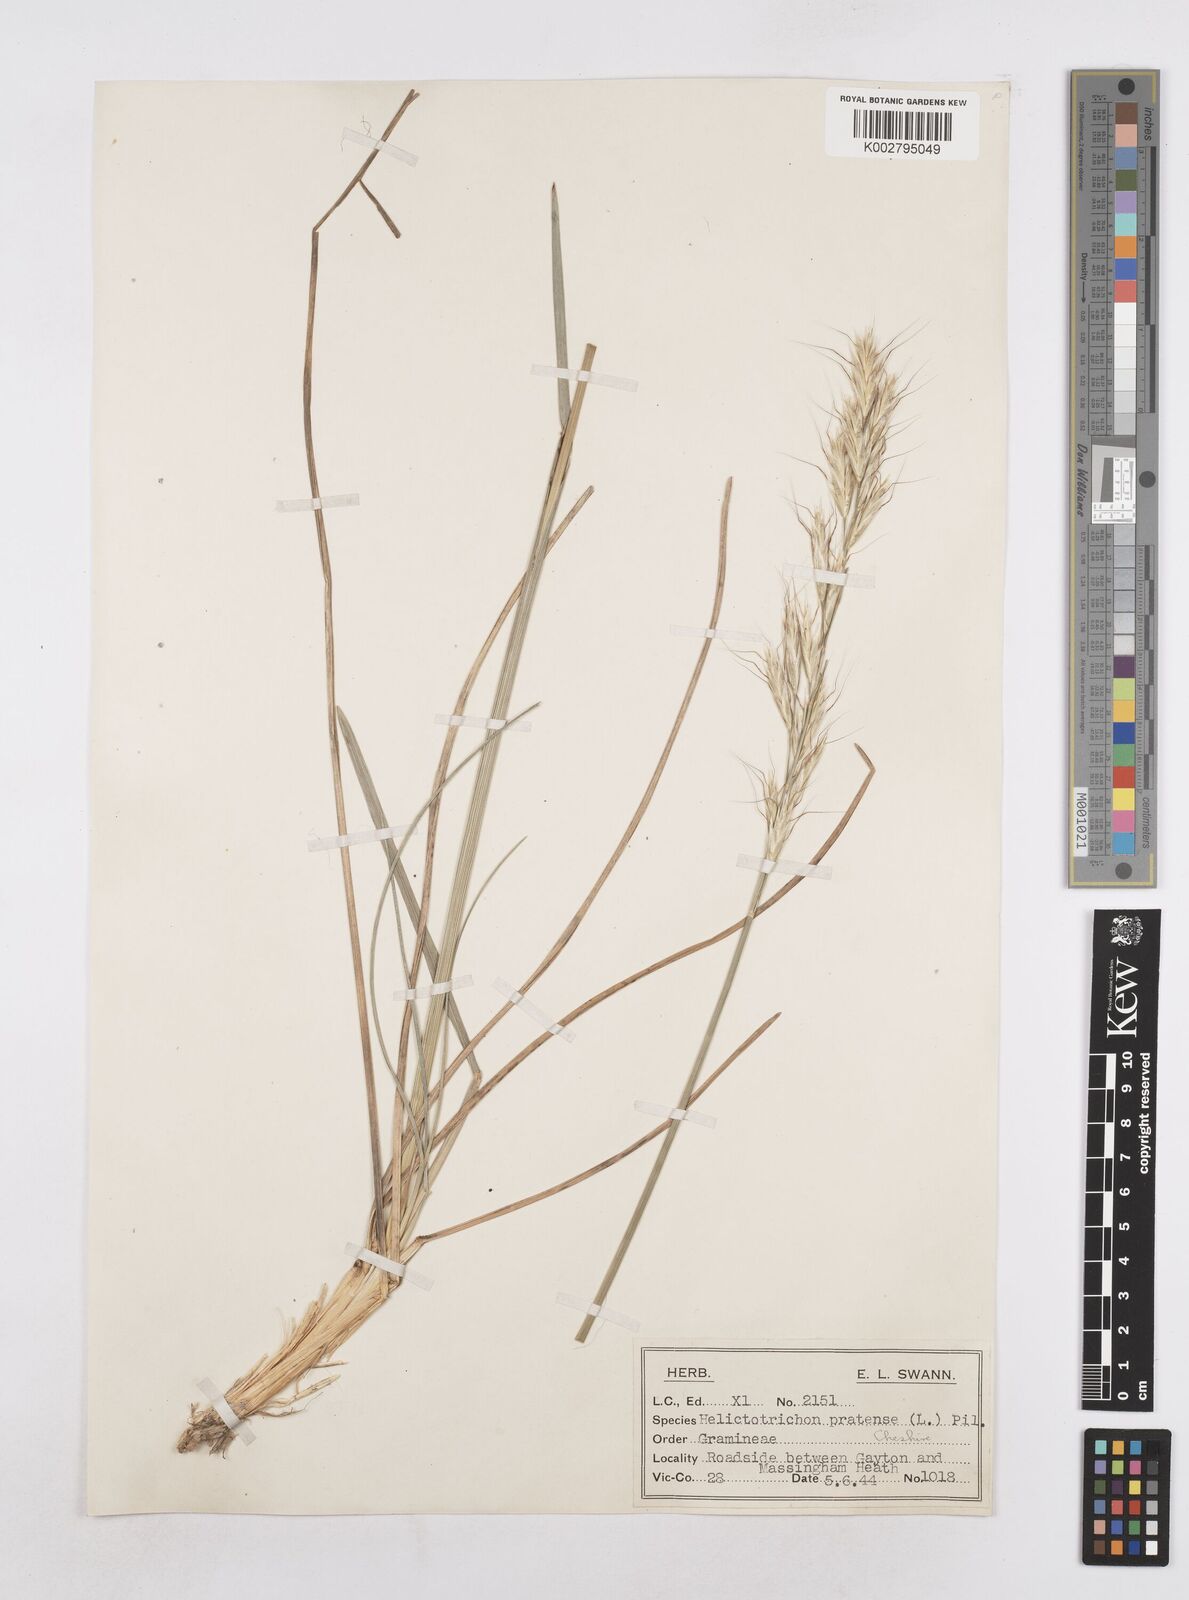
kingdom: Plantae
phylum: Tracheophyta
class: Liliopsida
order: Poales
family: Poaceae
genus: Helictochloa
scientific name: Helictochloa pratensis
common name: Meadow oat grass
